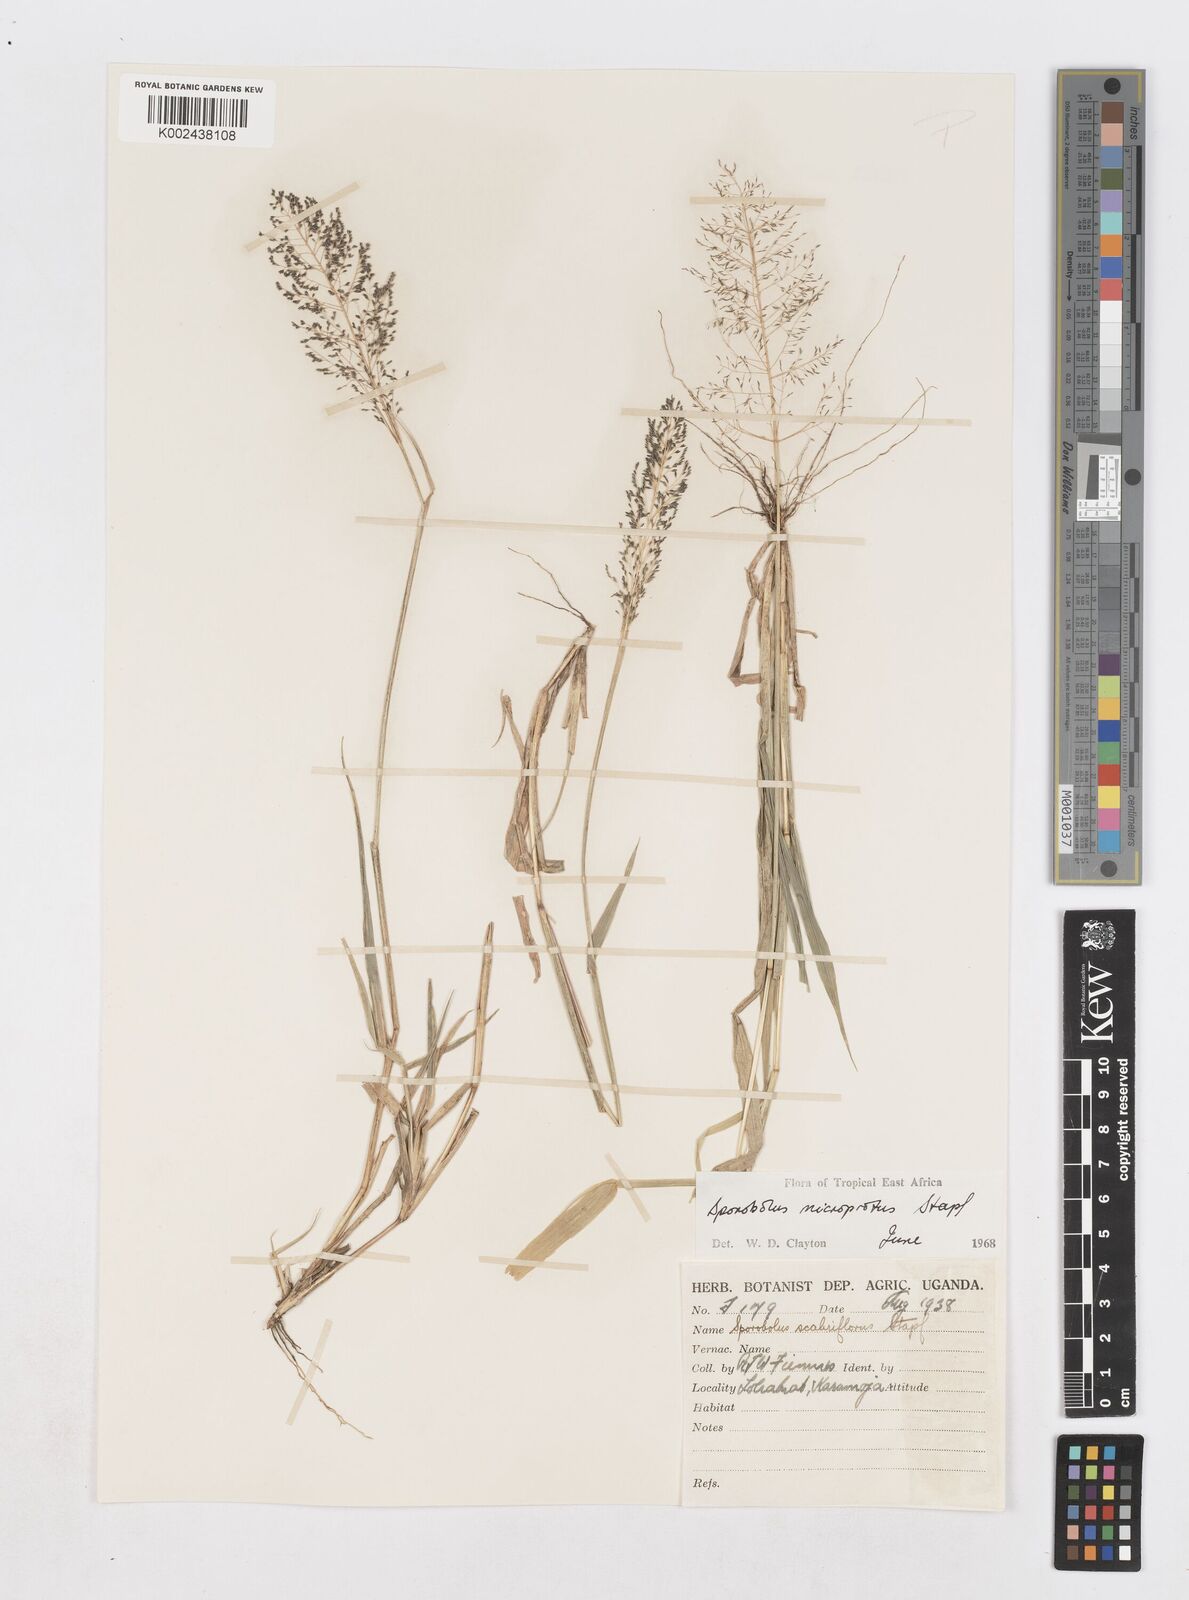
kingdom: Plantae
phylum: Tracheophyta
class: Liliopsida
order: Poales
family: Poaceae
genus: Sporobolus
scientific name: Sporobolus microprotus
